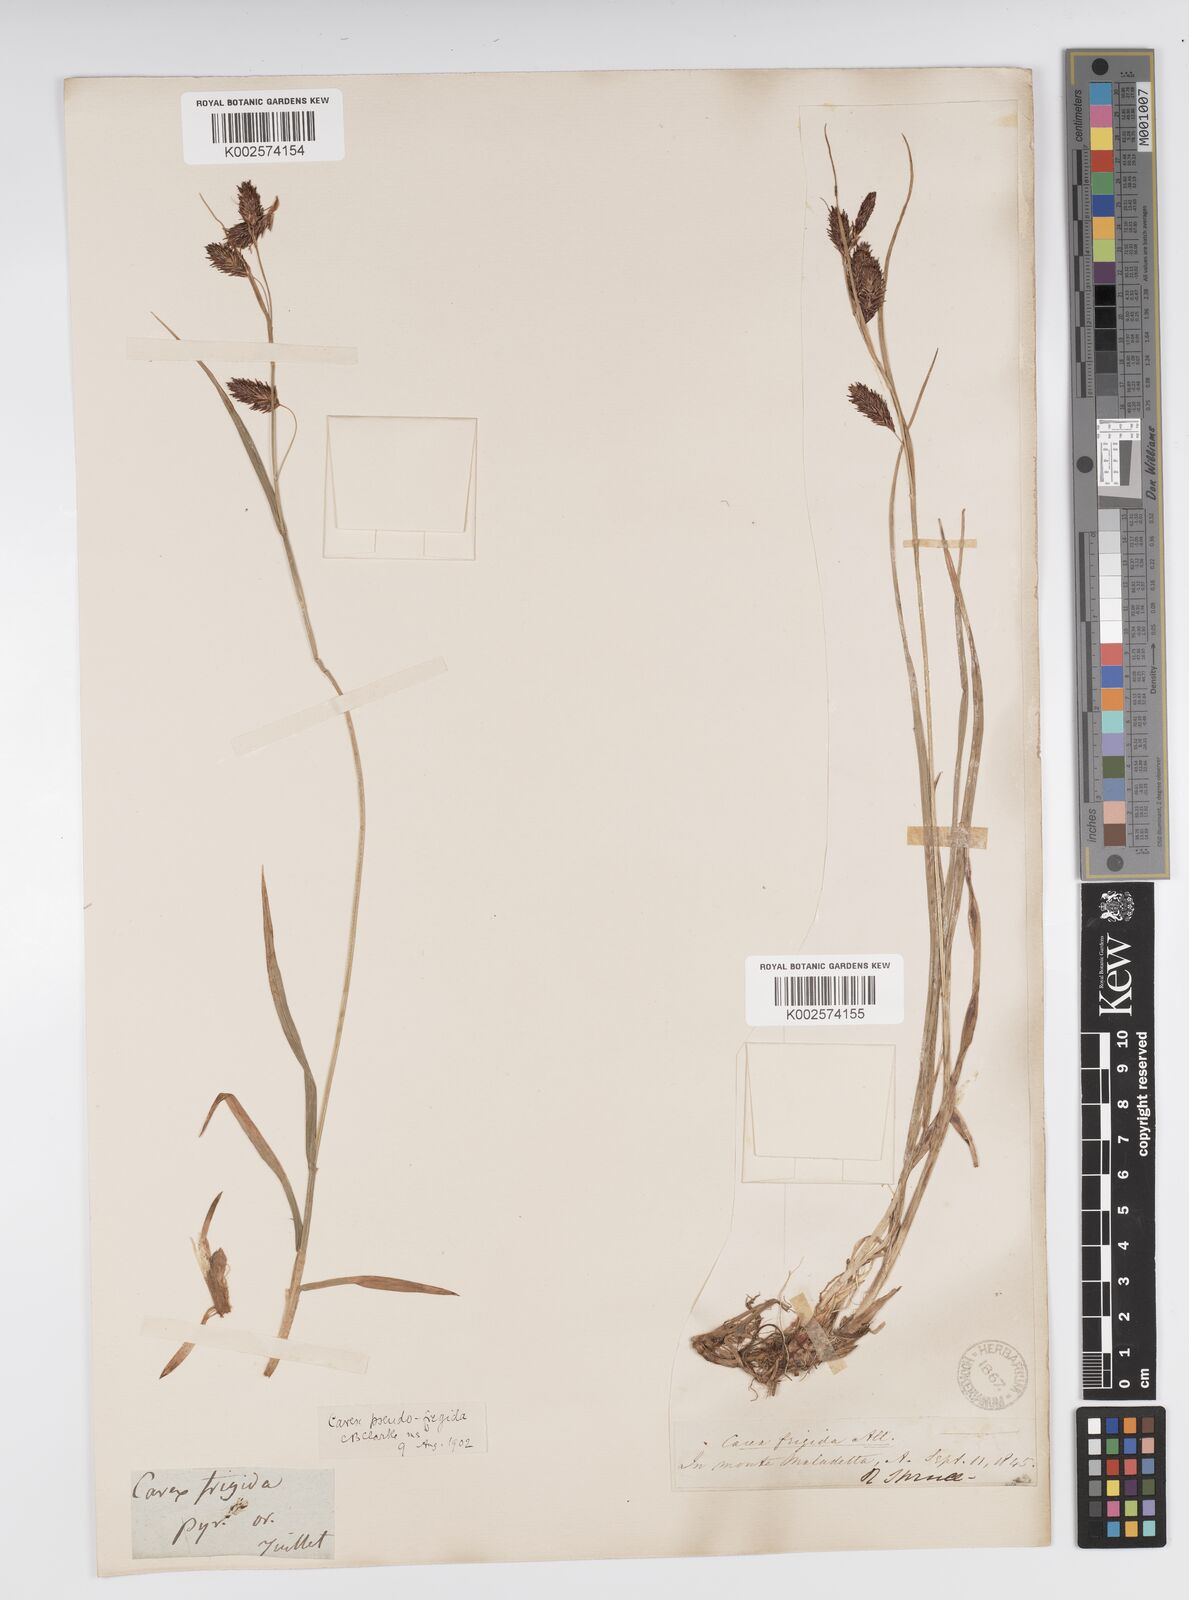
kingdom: Plantae
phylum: Tracheophyta
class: Liliopsida
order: Poales
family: Cyperaceae
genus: Carex
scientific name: Carex frigida
